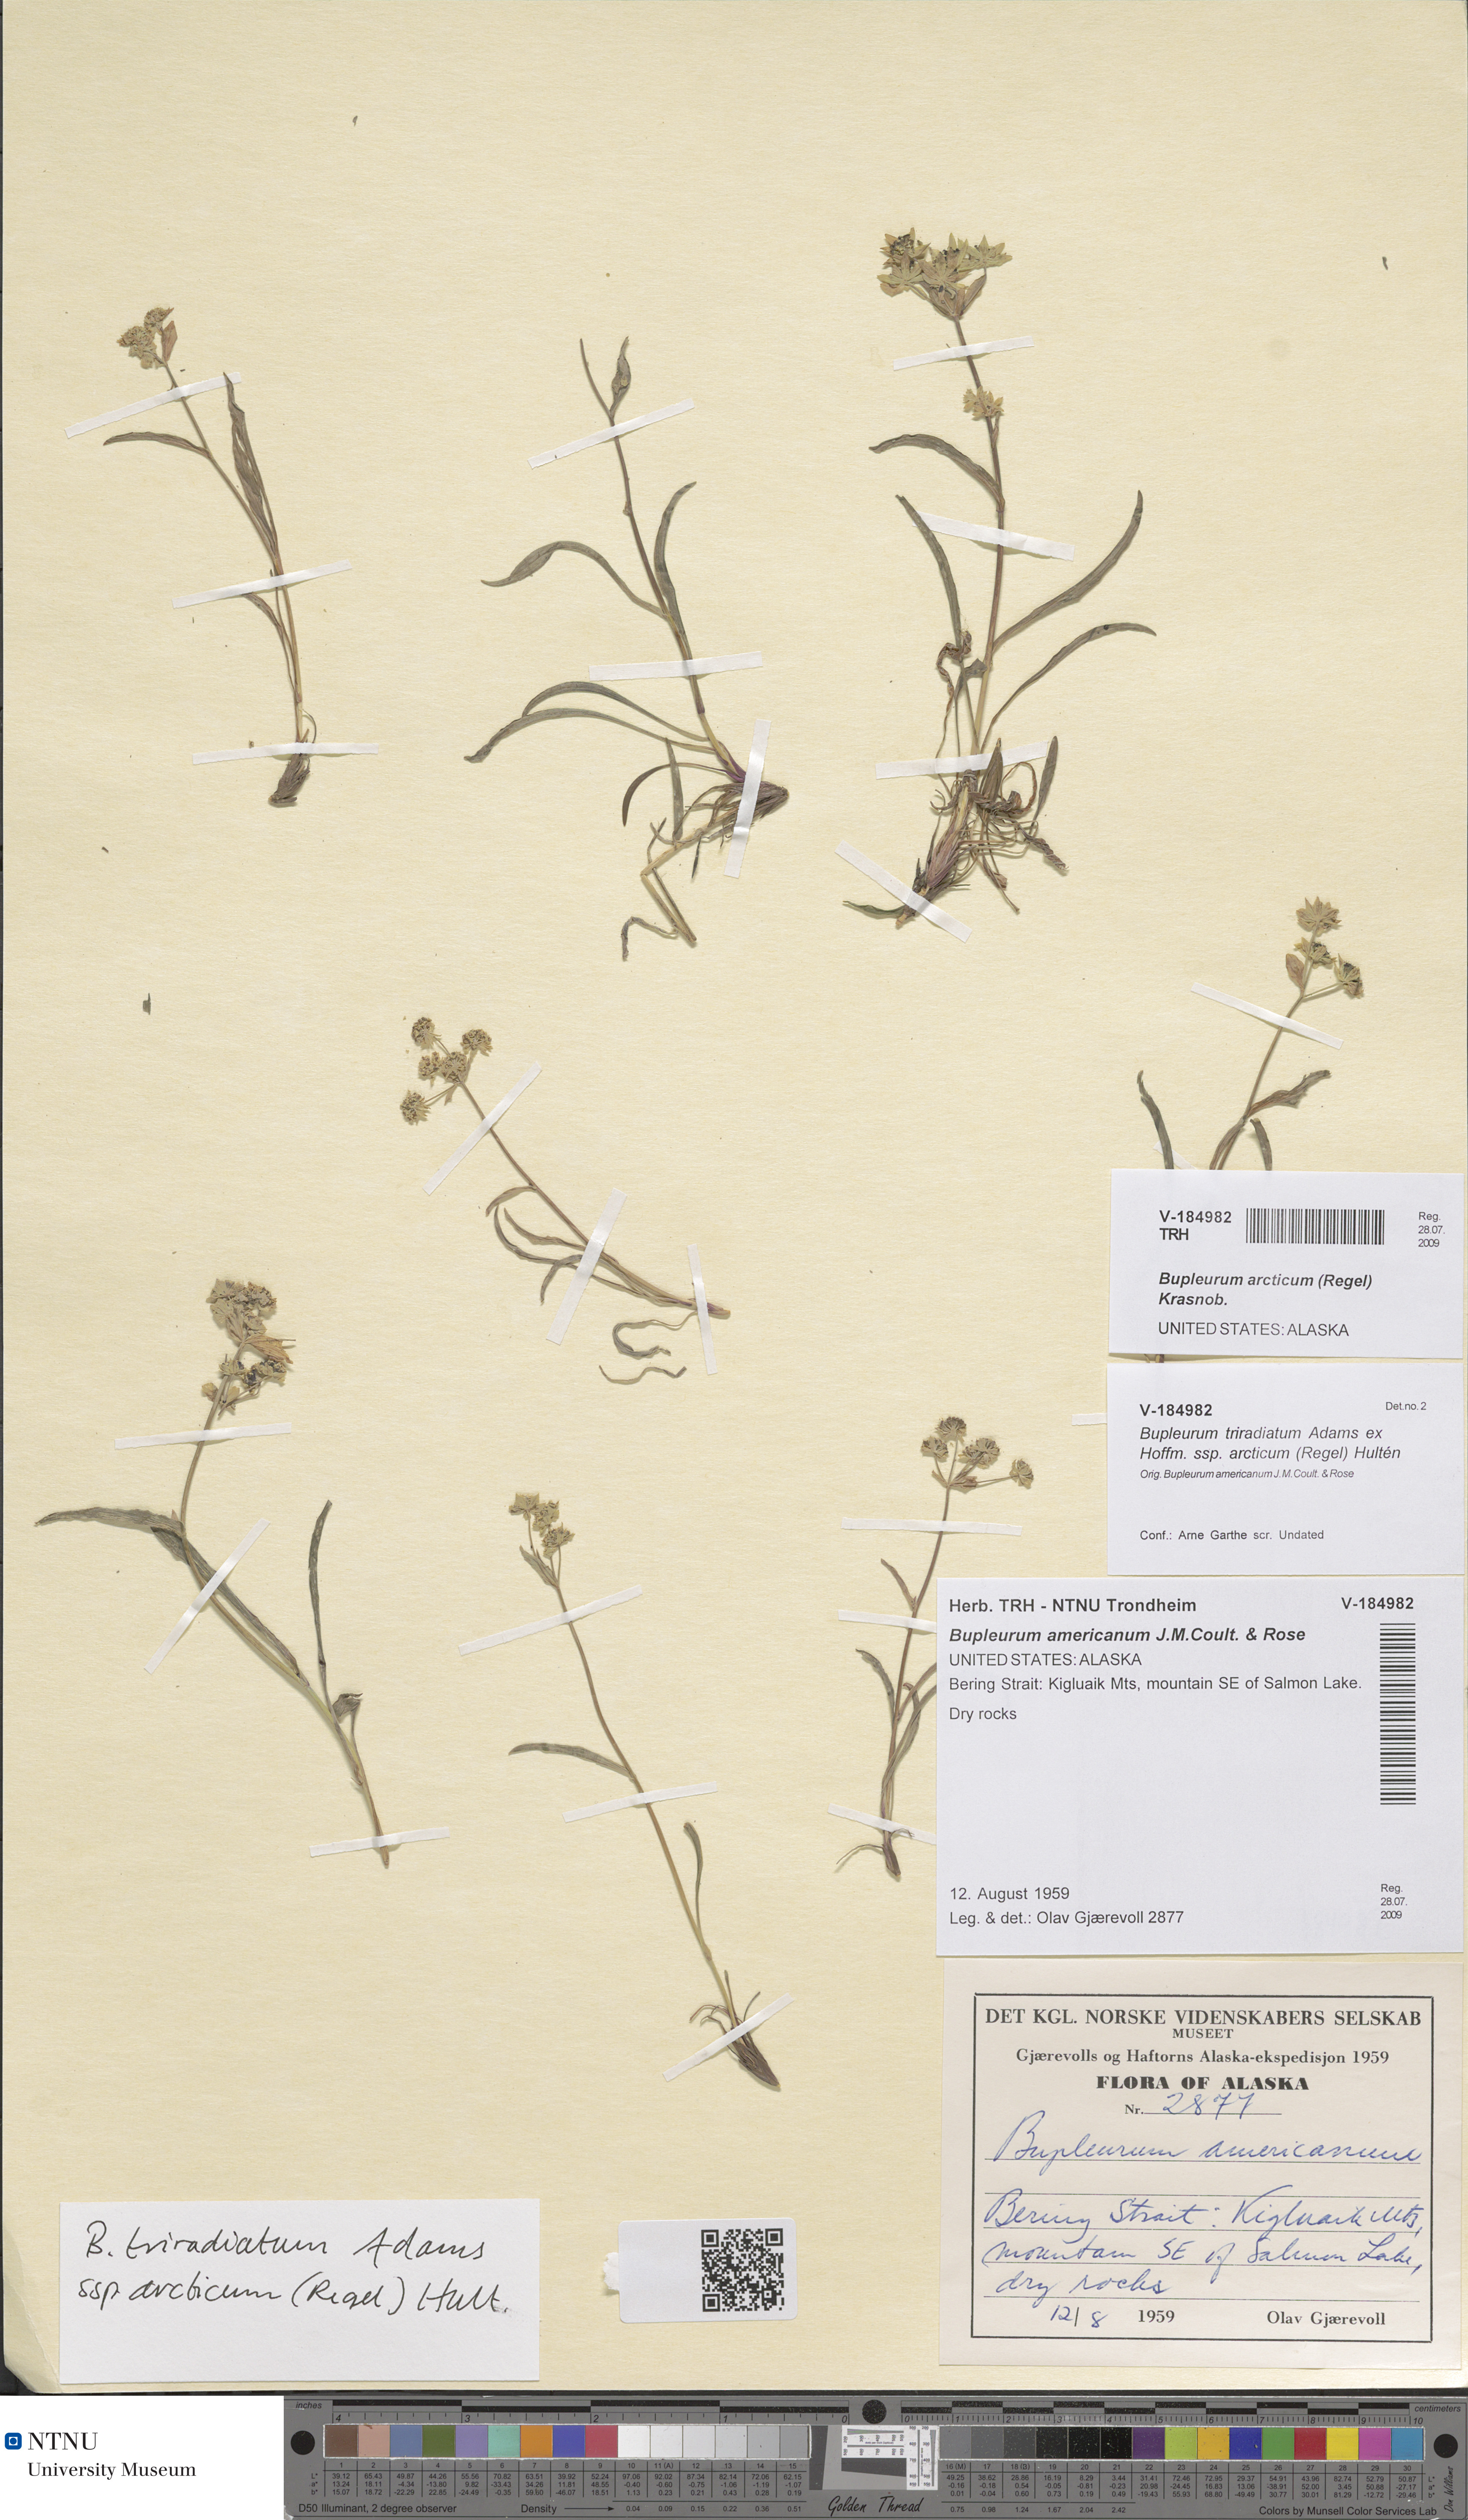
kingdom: Plantae
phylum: Tracheophyta
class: Magnoliopsida
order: Apiales
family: Apiaceae
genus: Bupleurum
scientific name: Bupleurum americanum
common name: American thoroughwax
